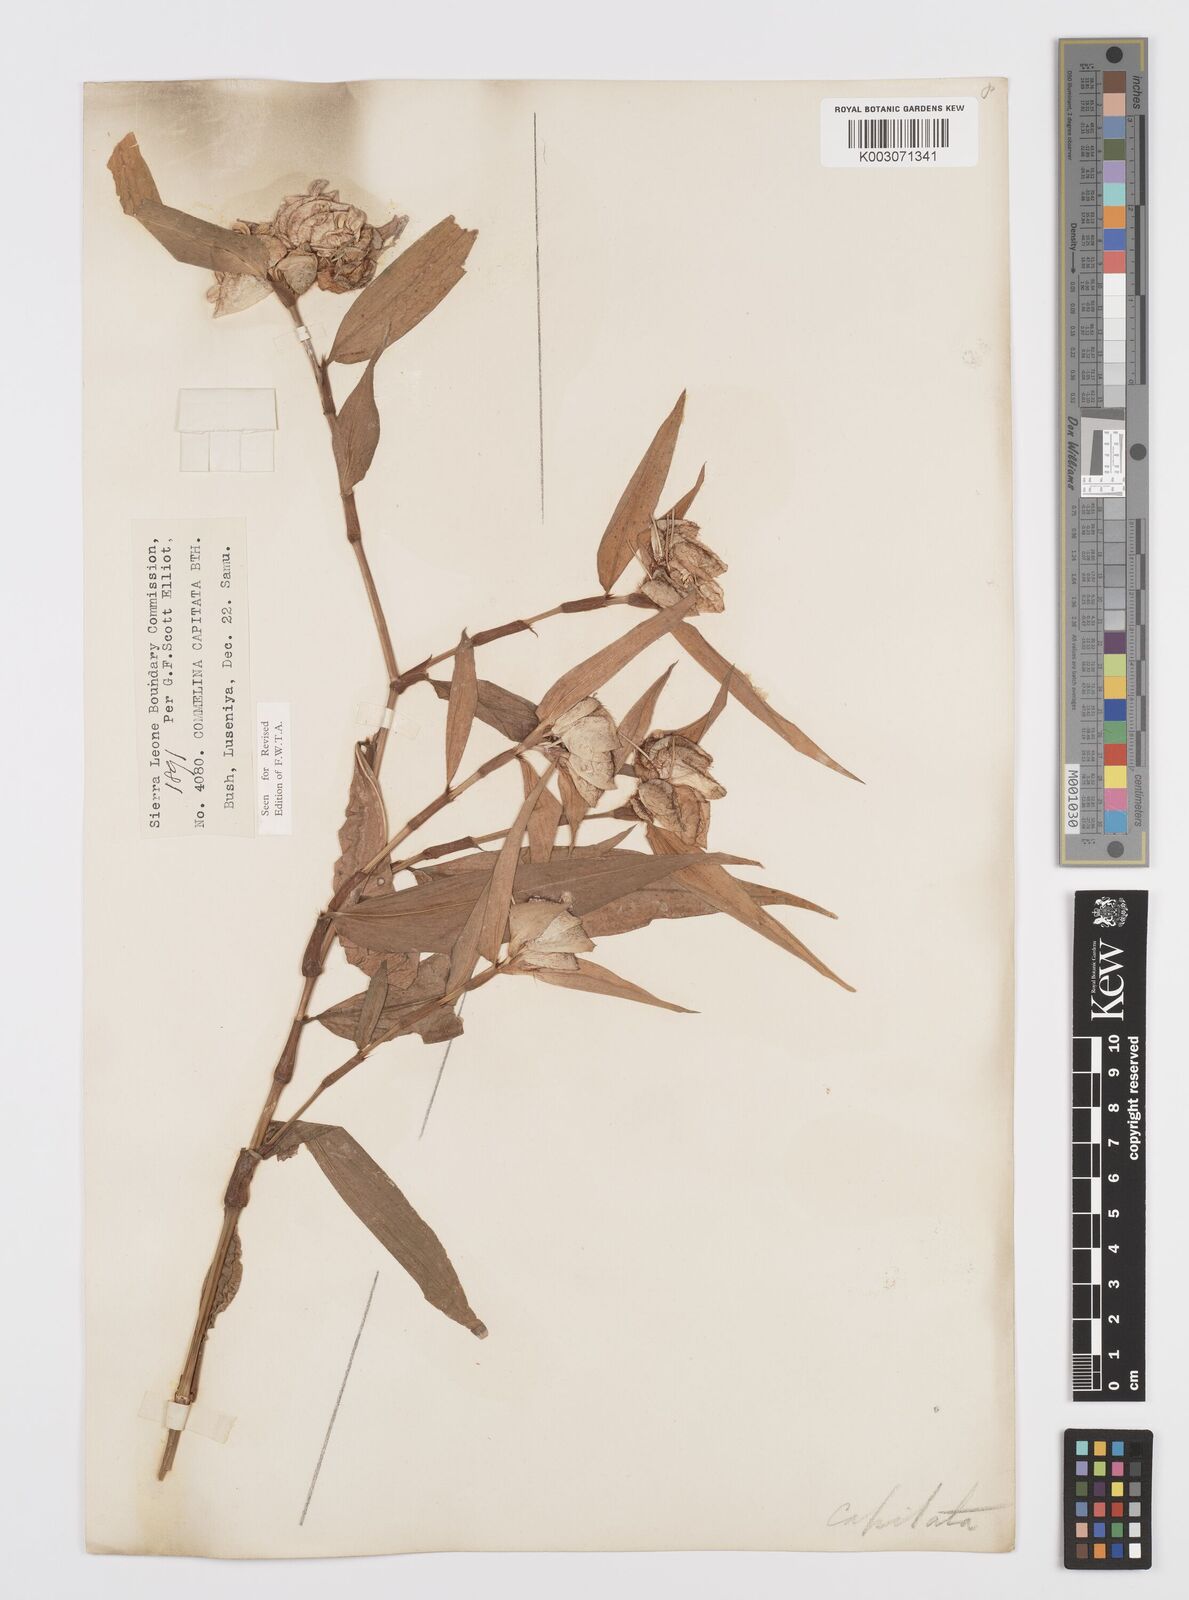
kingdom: Plantae
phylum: Tracheophyta
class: Liliopsida
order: Commelinales
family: Commelinaceae
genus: Commelina
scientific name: Commelina capitata
